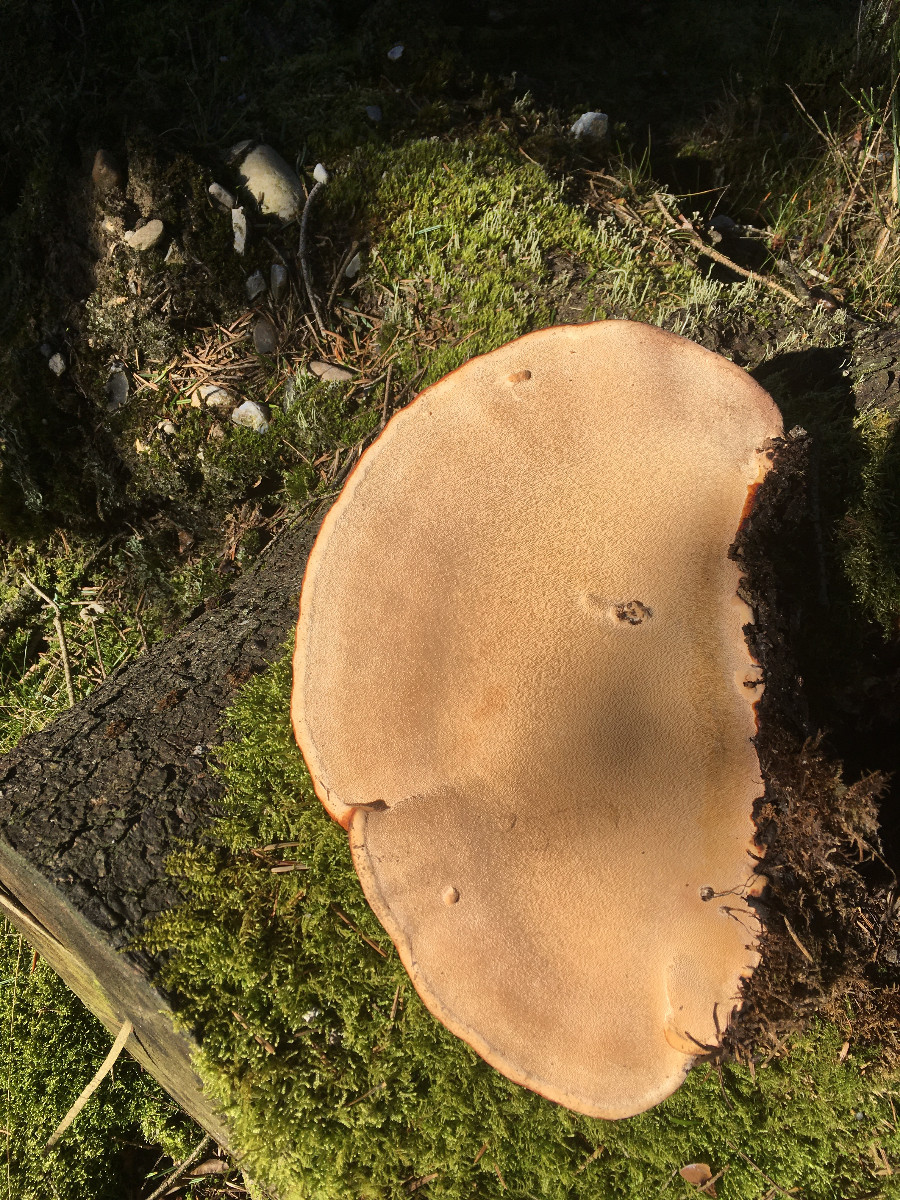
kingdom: Fungi
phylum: Basidiomycota
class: Agaricomycetes
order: Polyporales
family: Fomitopsidaceae
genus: Fomitopsis
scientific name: Fomitopsis pinicola
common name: randbæltet hovporesvamp
